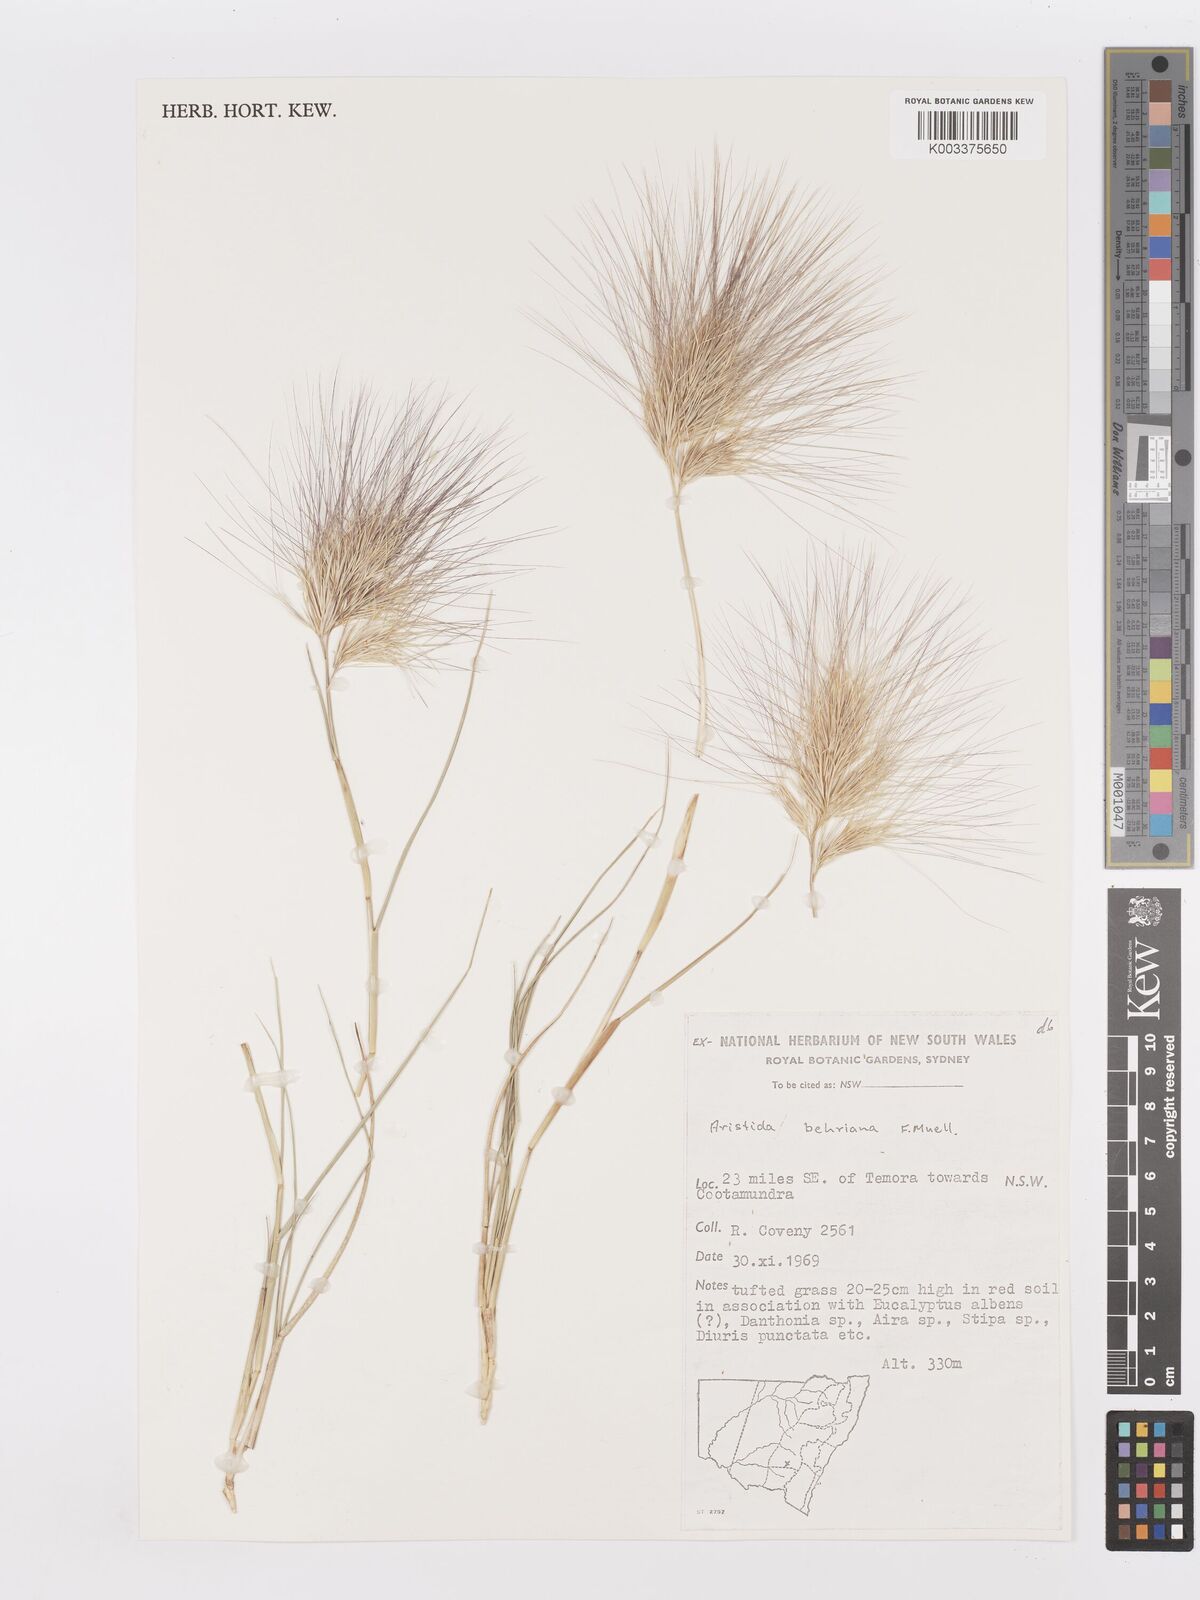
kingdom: Plantae
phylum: Tracheophyta
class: Liliopsida
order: Poales
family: Poaceae
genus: Aristida
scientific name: Aristida behriana
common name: Long-awn wire grass
